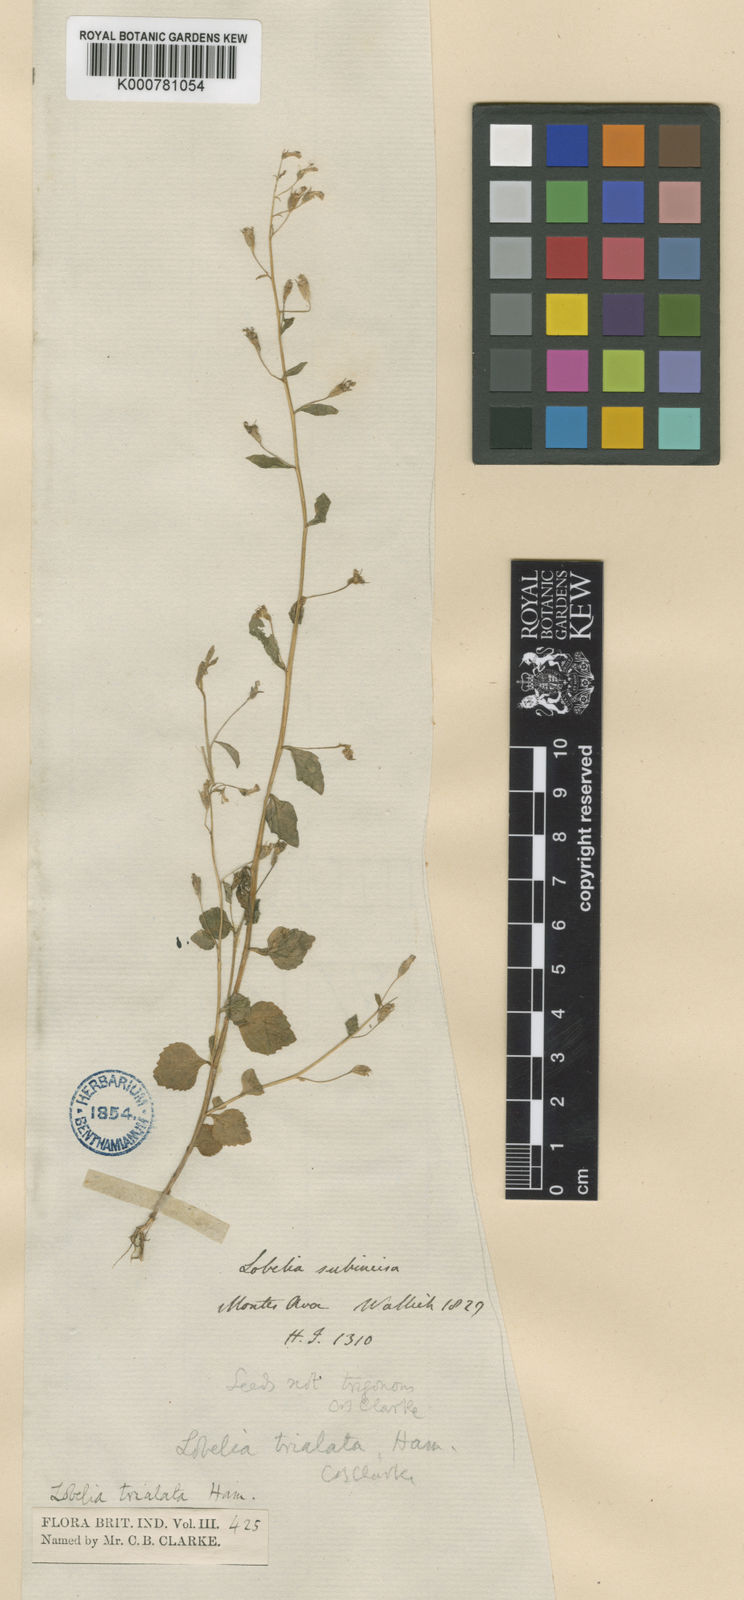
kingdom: Plantae
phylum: Tracheophyta
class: Magnoliopsida
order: Asterales
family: Campanulaceae
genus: Lobelia
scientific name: Lobelia heyneana
